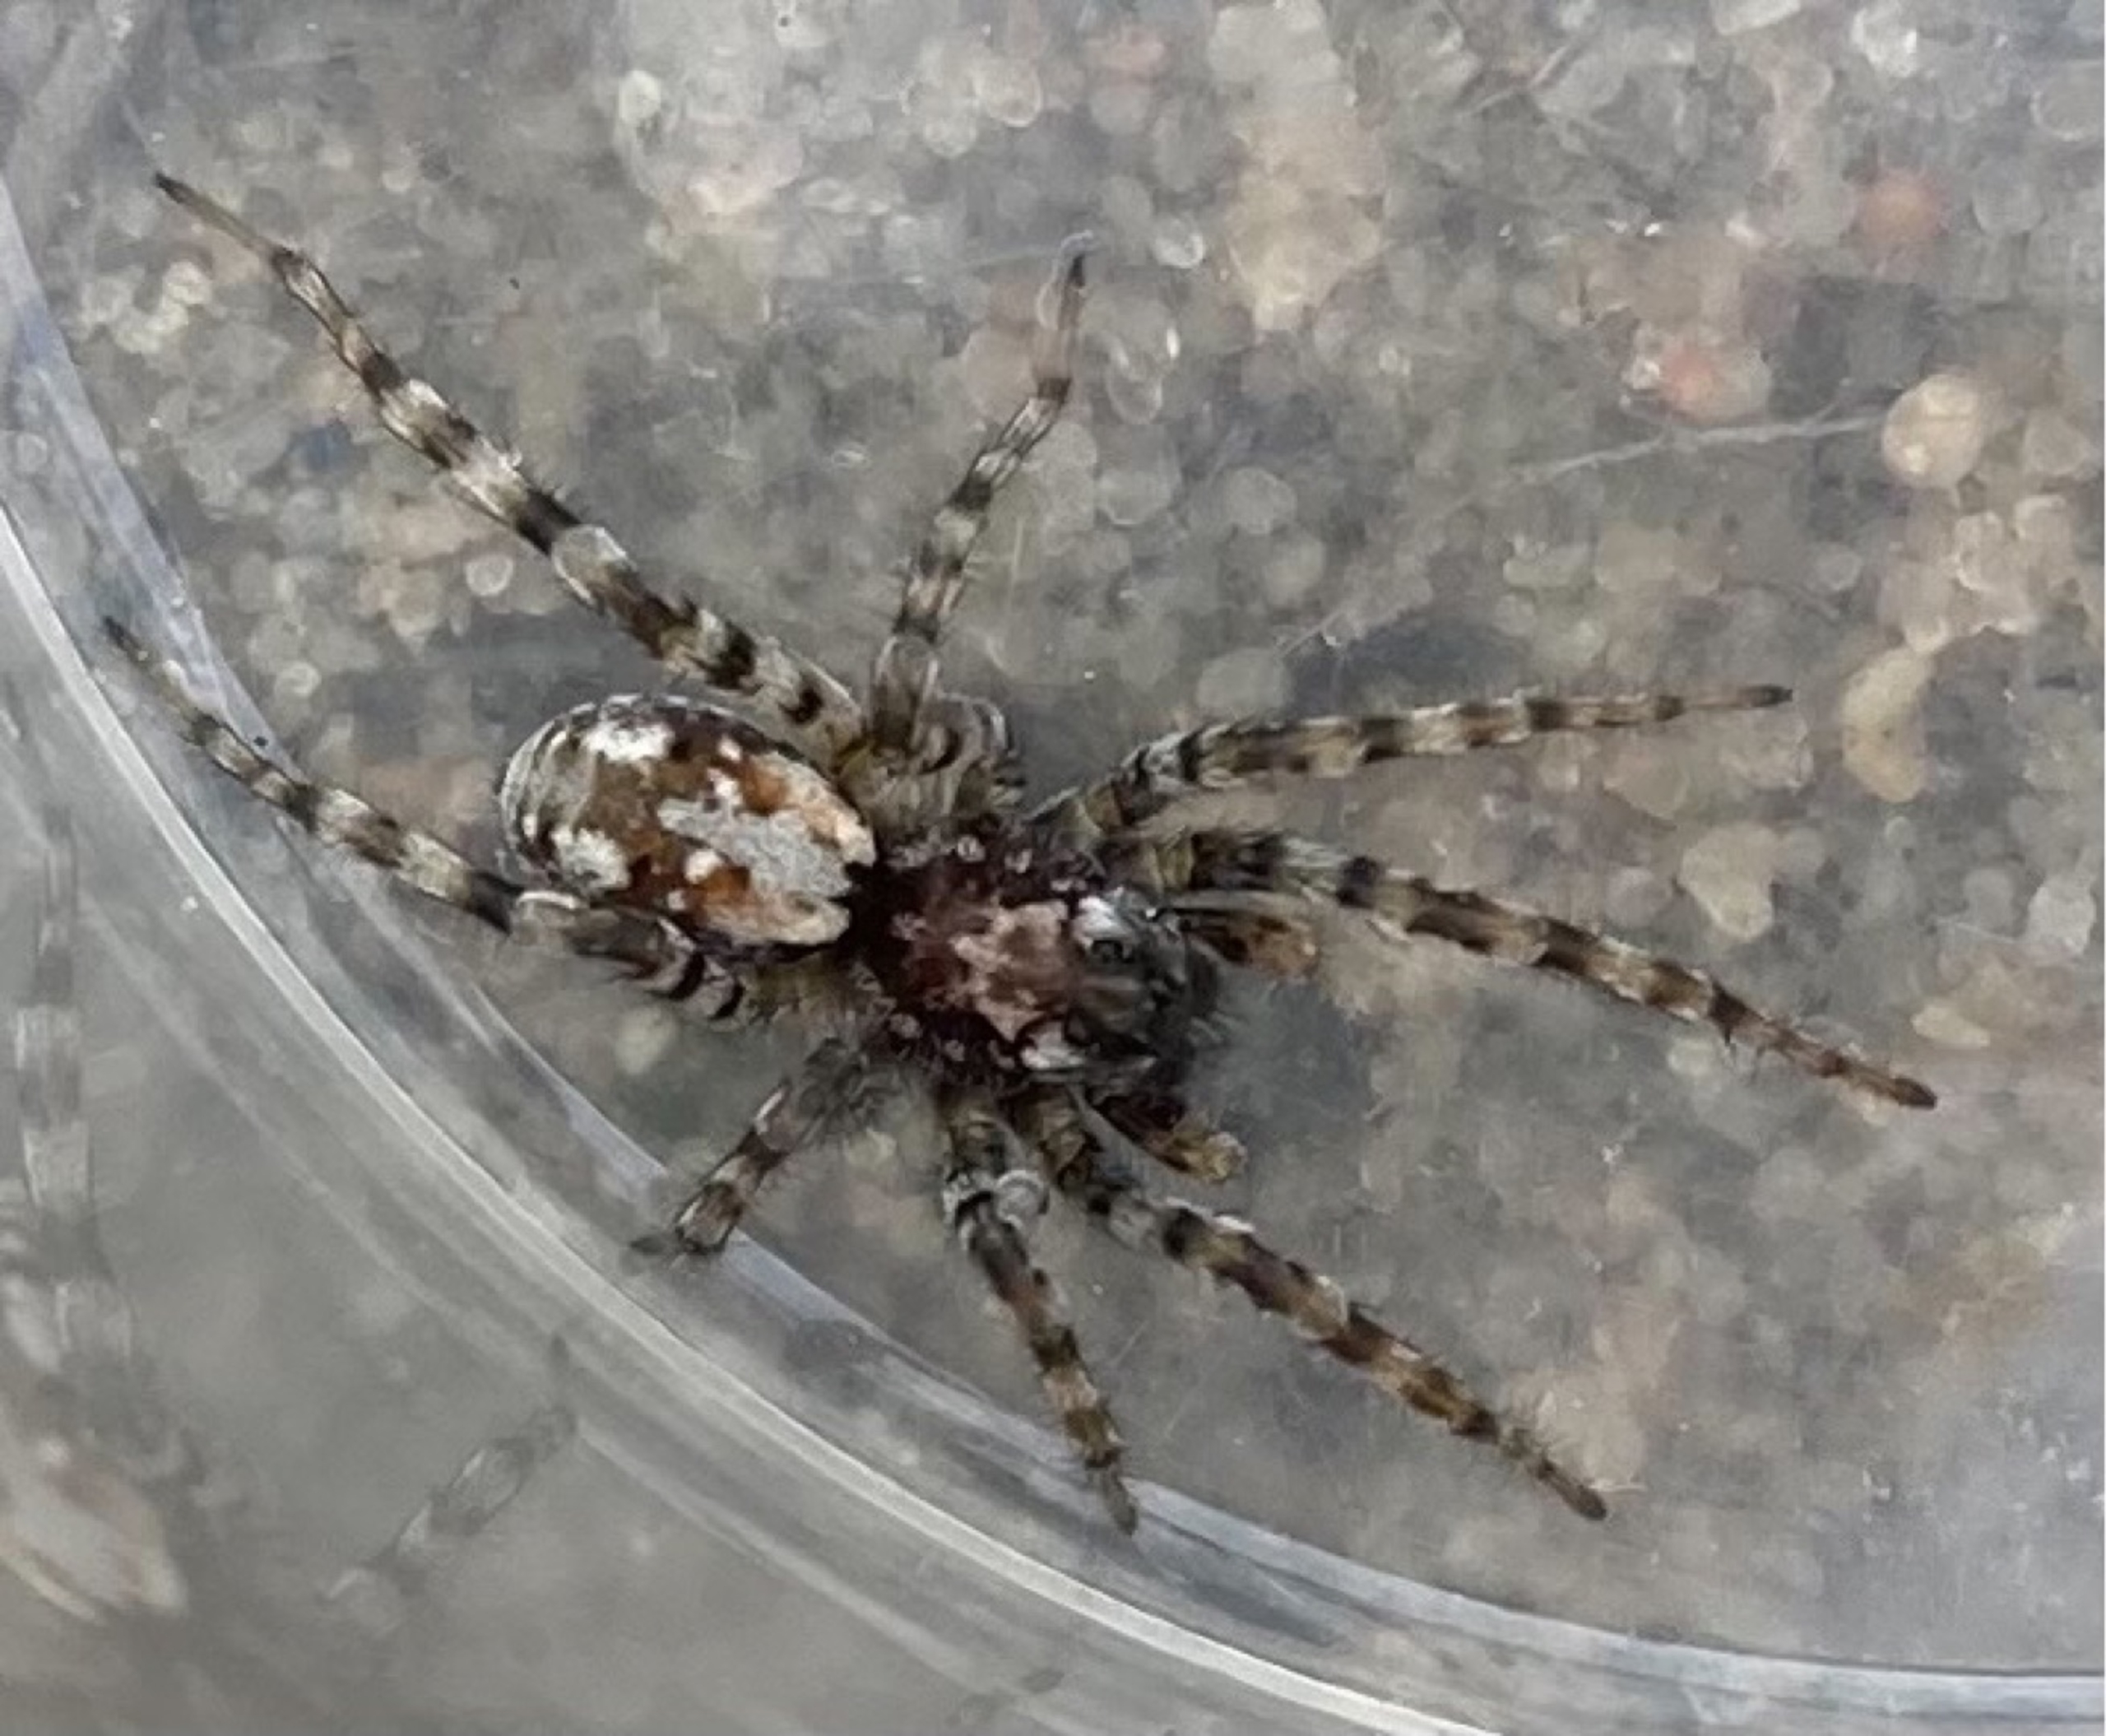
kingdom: Animalia
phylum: Arthropoda
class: Arachnida
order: Araneae
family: Lycosidae
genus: Arctosa
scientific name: Arctosa perita
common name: Klitgraveedderkop
